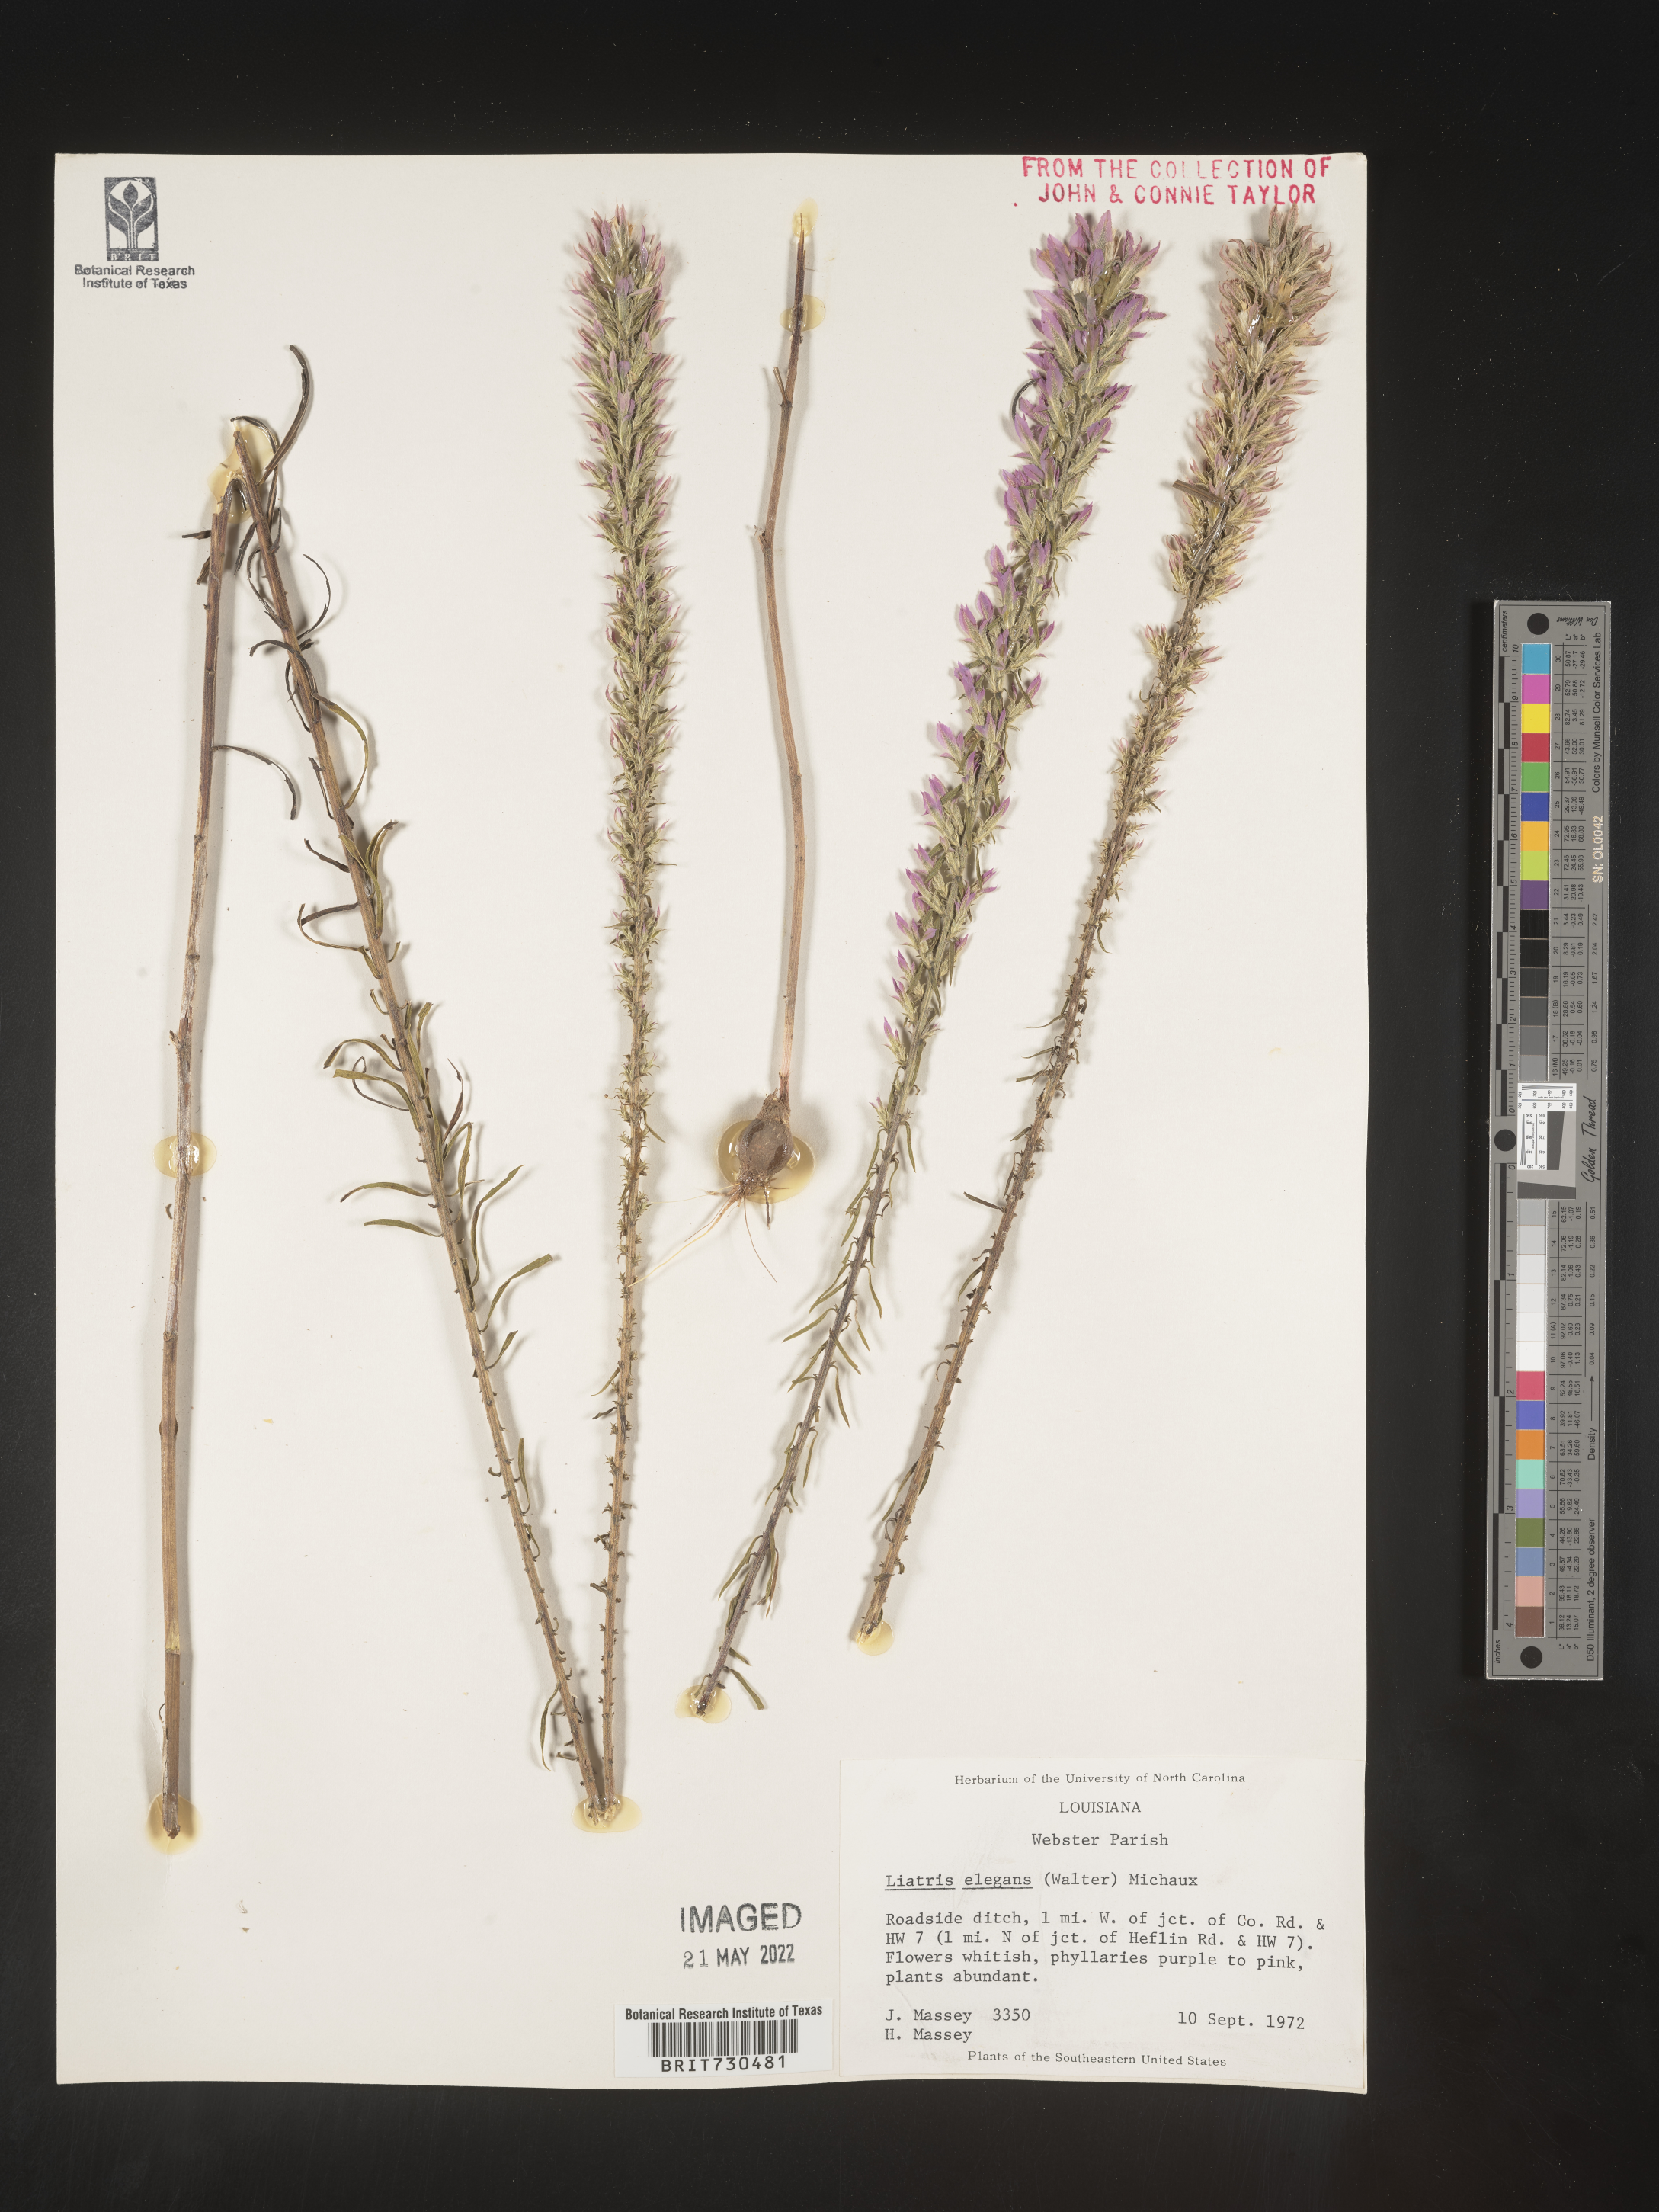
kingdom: Plantae
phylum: Tracheophyta
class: Magnoliopsida
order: Asterales
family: Asteraceae
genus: Liatris
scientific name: Liatris elegans
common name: Pinkscale gayfeather
